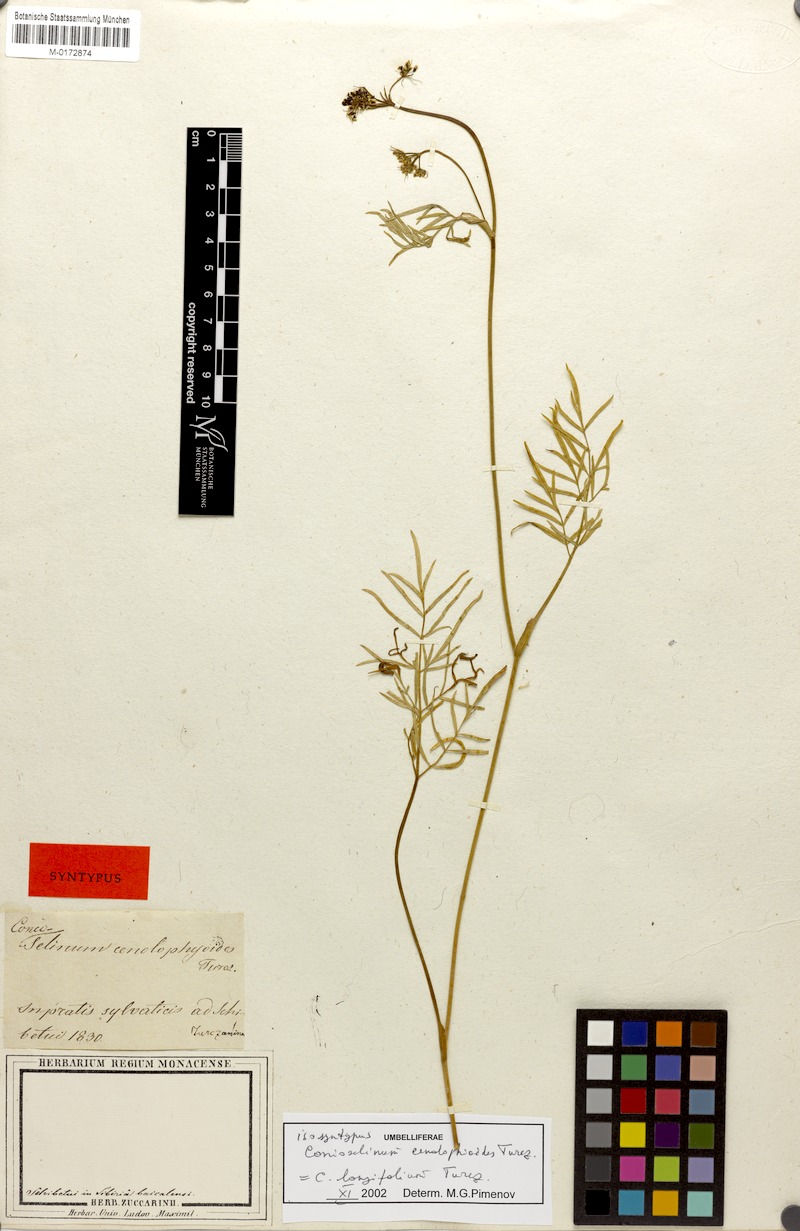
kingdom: Plantae
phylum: Tracheophyta
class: Magnoliopsida
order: Apiales
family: Apiaceae
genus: Conioselinum
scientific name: Conioselinum longifolium
